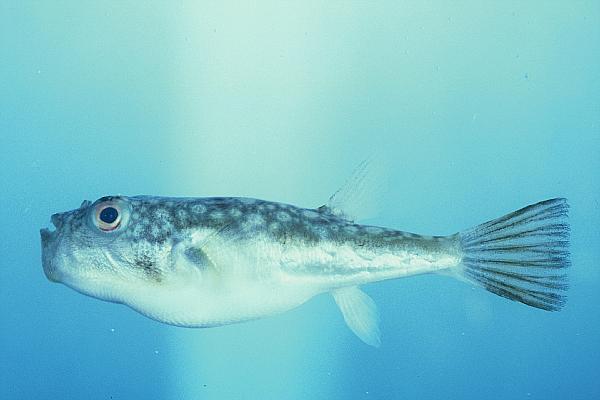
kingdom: Animalia
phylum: Chordata
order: Tetraodontiformes
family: Tetraodontidae
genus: Amblyrhynchotes
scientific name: Amblyrhynchotes honckenii
